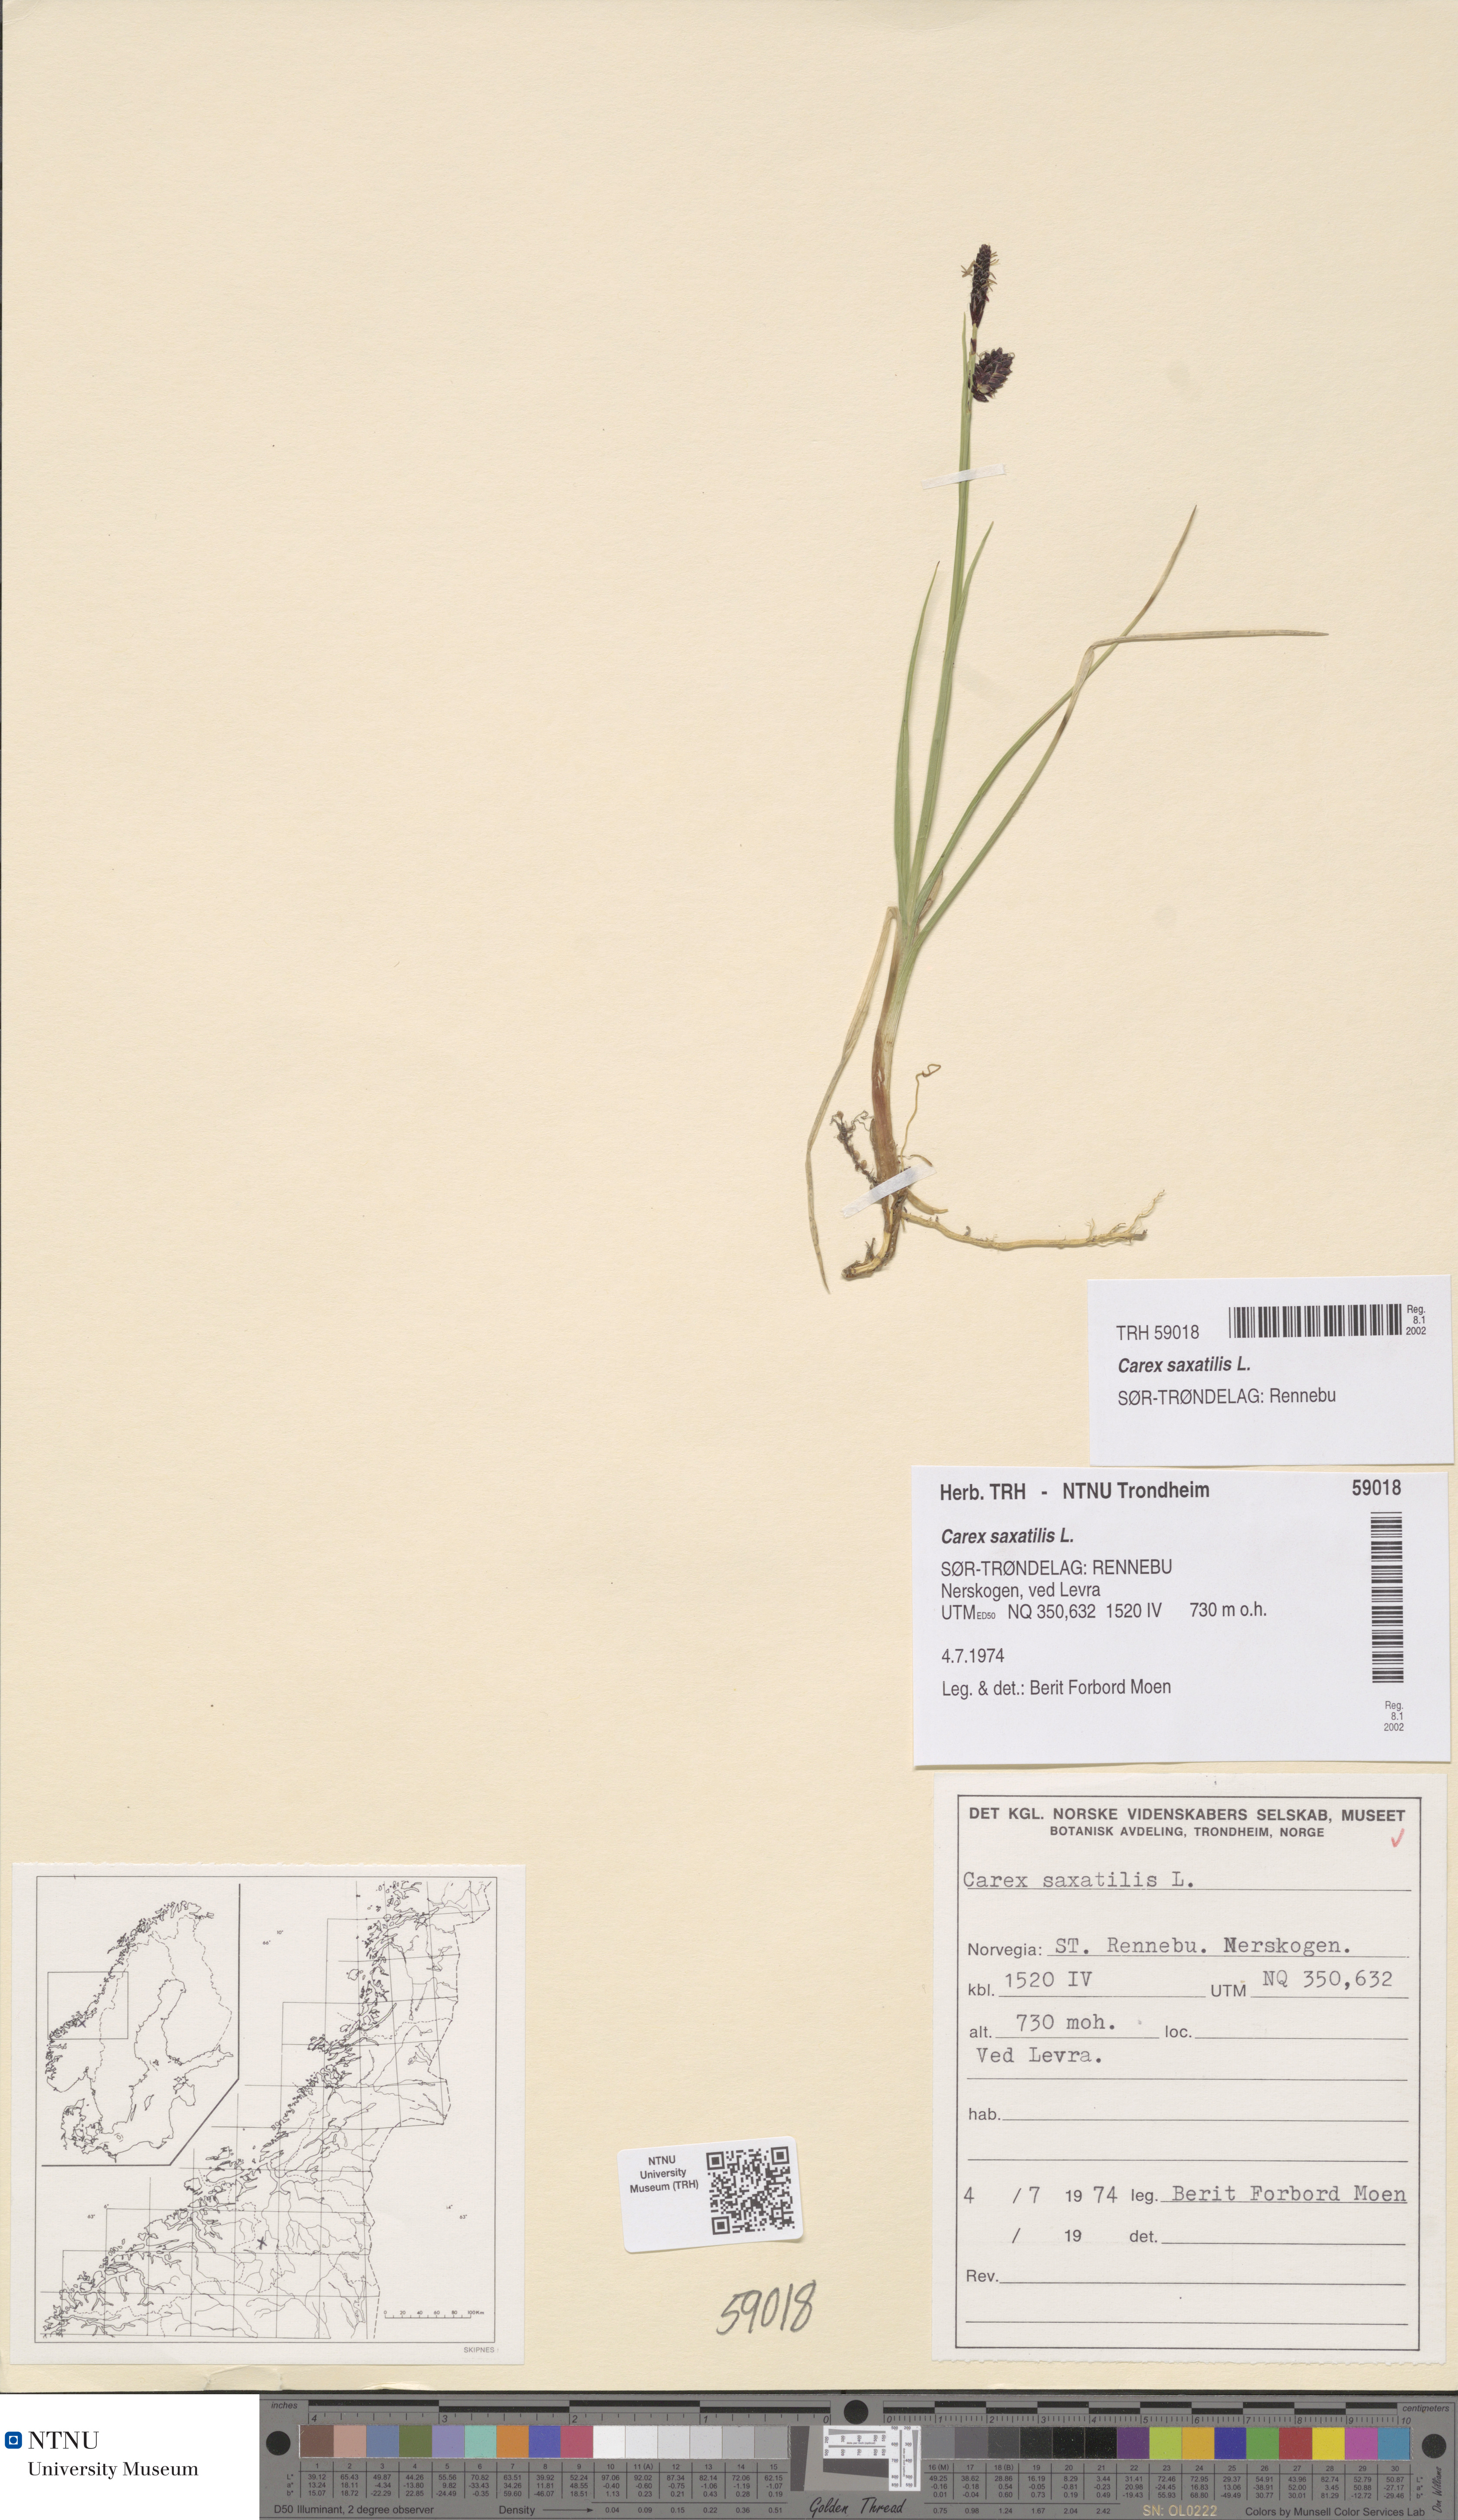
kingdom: Plantae
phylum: Tracheophyta
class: Liliopsida
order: Poales
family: Cyperaceae
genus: Carex
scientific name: Carex saxatilis
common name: Russet sedge
